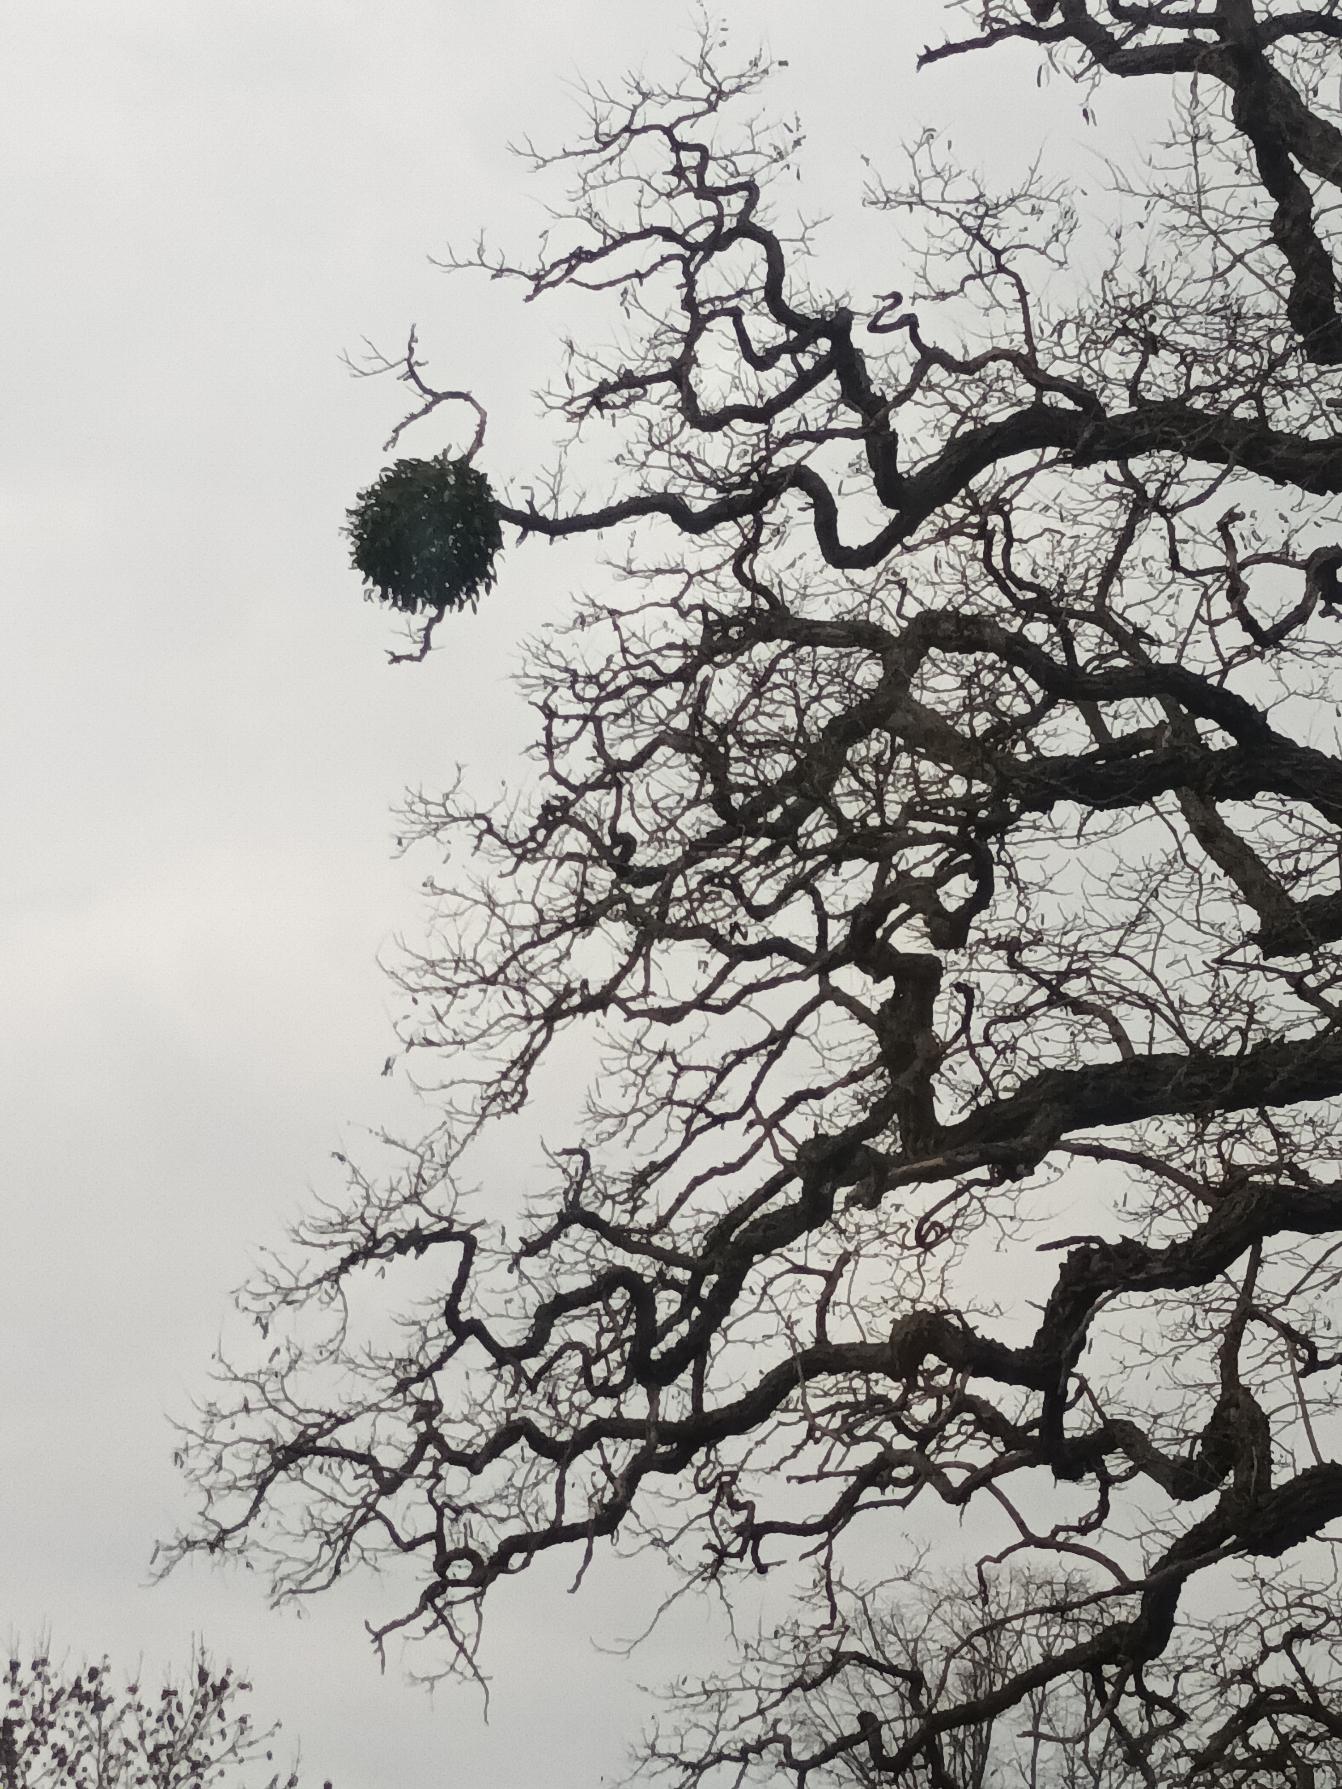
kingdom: Plantae
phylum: Tracheophyta
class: Magnoliopsida
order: Santalales
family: Viscaceae
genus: Viscum
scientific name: Viscum album
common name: Mistelten
